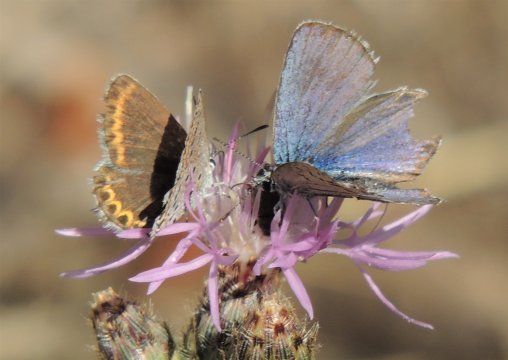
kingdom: Animalia
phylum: Arthropoda
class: Insecta
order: Lepidoptera
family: Lycaenidae
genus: Lycaeides
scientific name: Lycaeides melissa
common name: Melissa Blue
